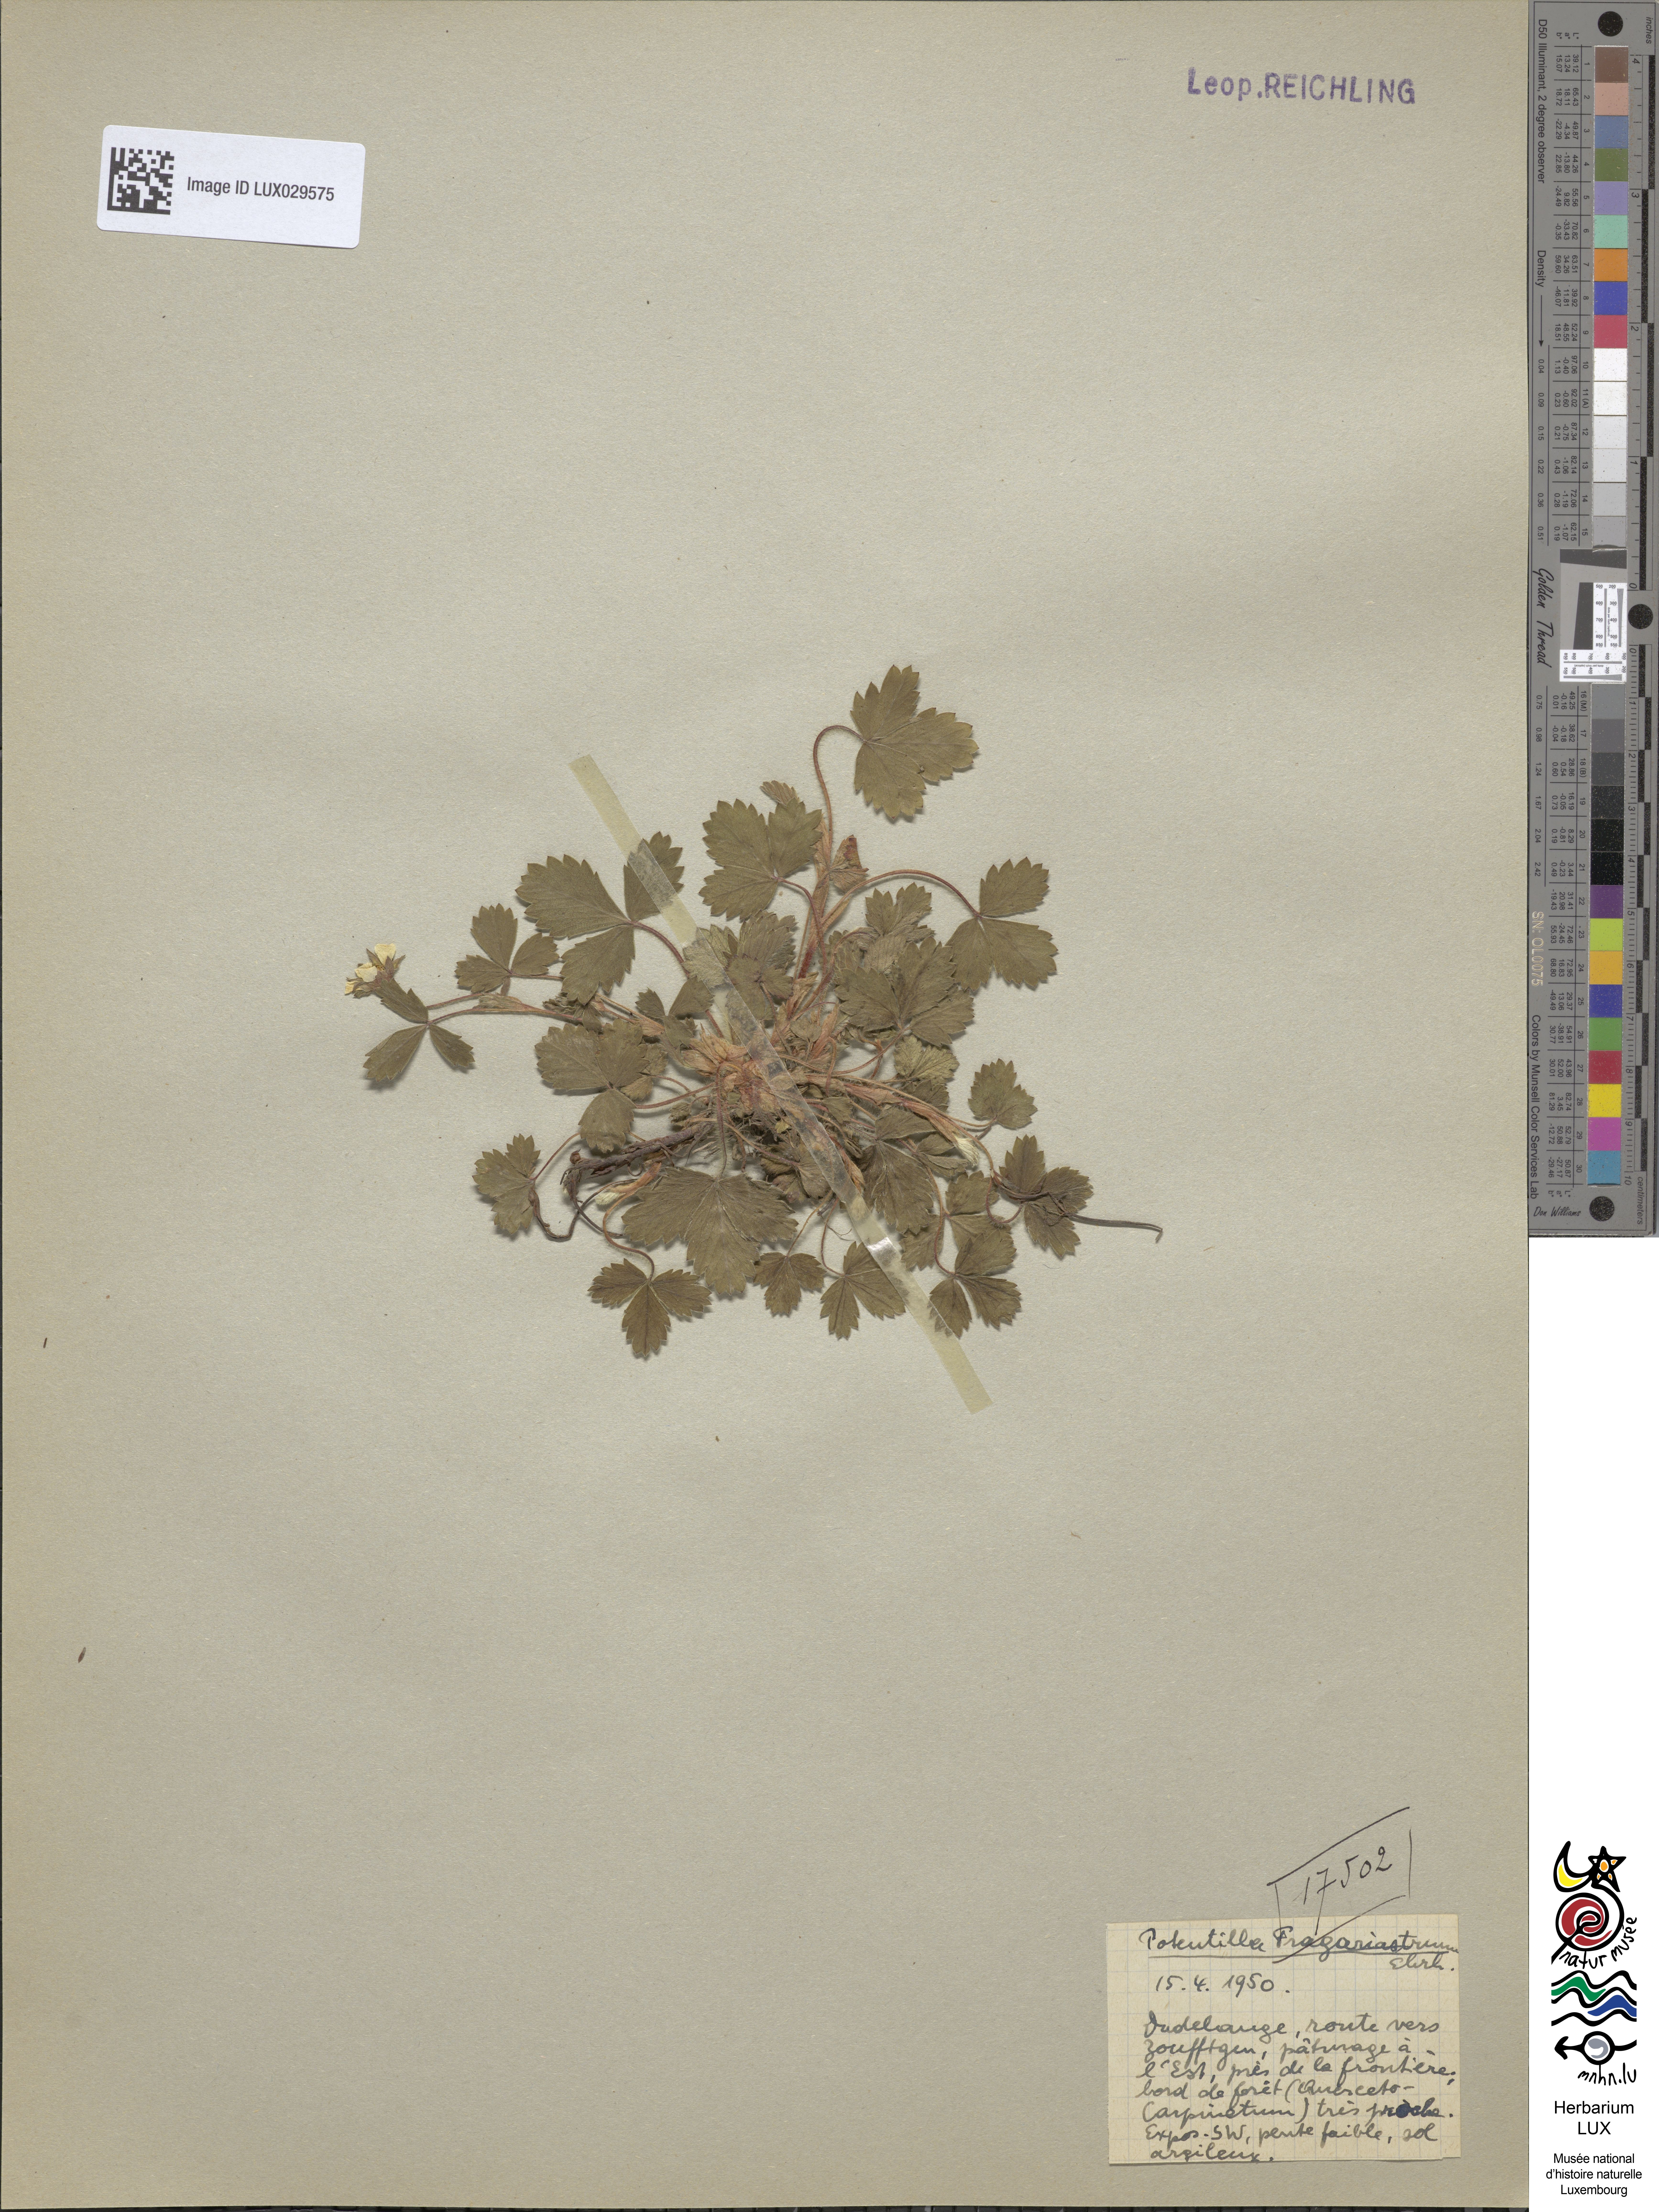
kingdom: Plantae
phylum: Tracheophyta
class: Magnoliopsida
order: Rosales
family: Rosaceae
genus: Potentilla
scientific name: Potentilla sterilis
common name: Barren strawberry
